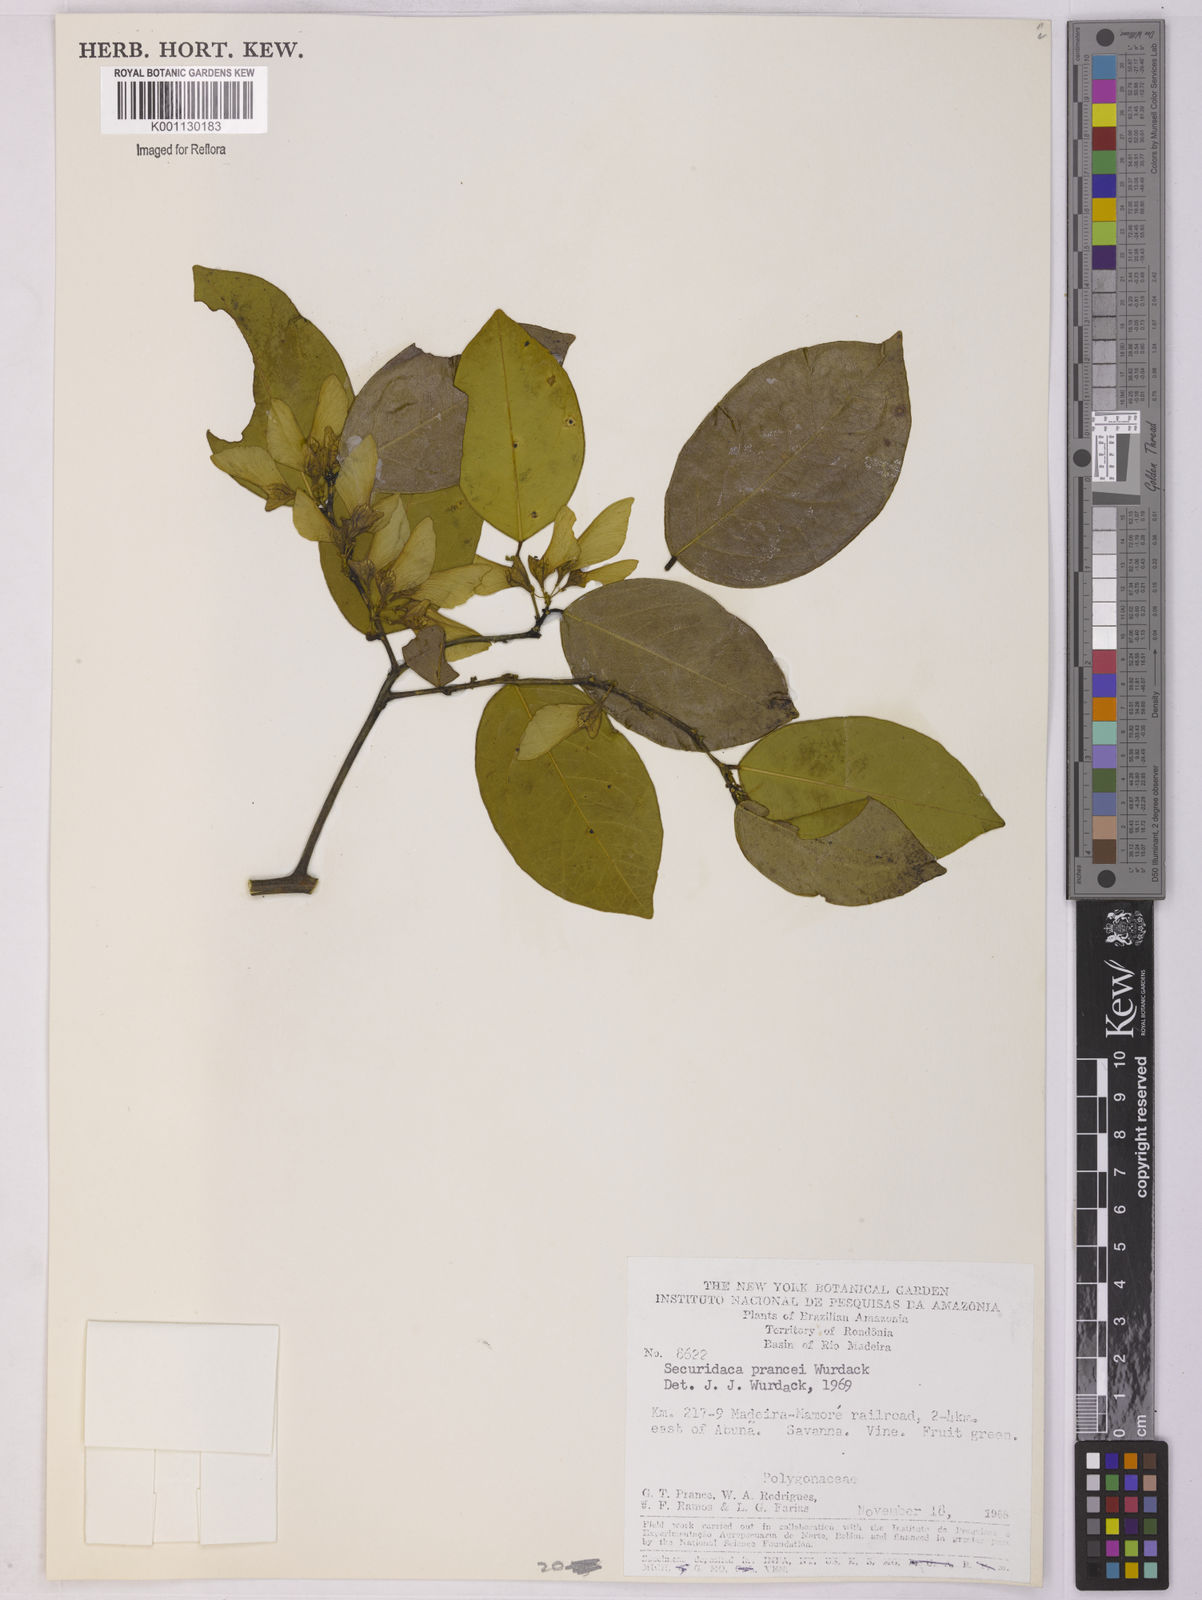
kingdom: Plantae
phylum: Tracheophyta
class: Magnoliopsida
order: Fabales
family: Polygalaceae
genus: Securidaca
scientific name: Securidaca prancei
